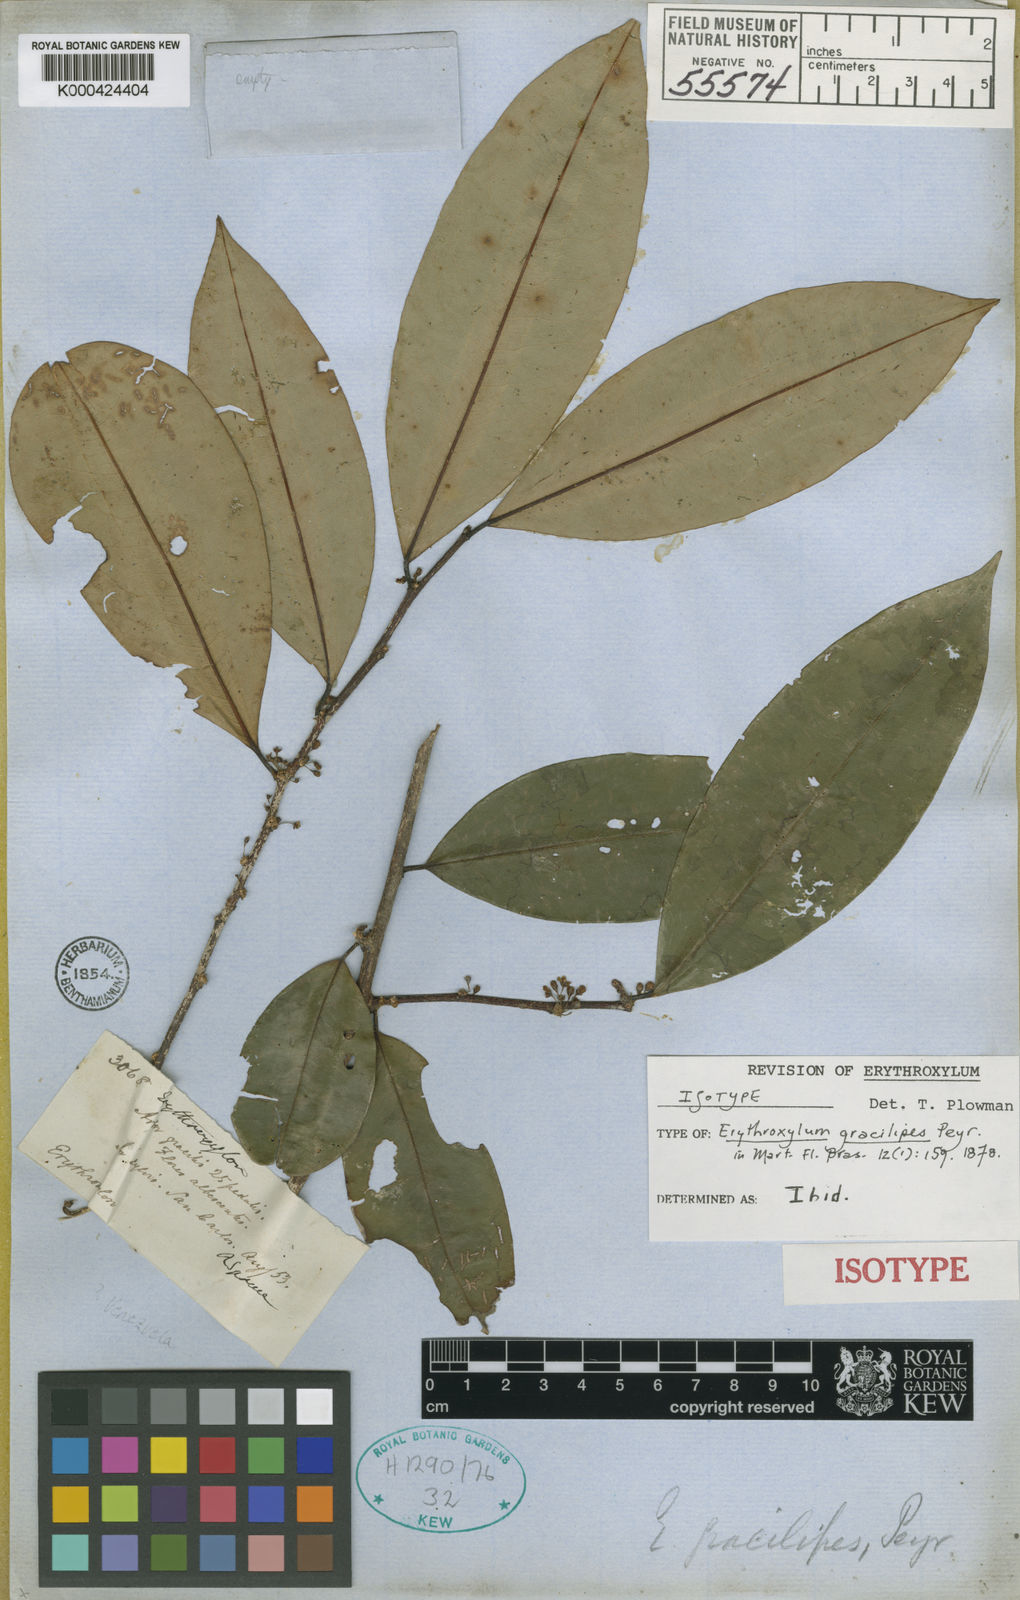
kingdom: Plantae
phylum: Tracheophyta
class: Magnoliopsida
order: Malpighiales
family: Erythroxylaceae
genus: Erythroxylum
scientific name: Erythroxylum gracilipes
